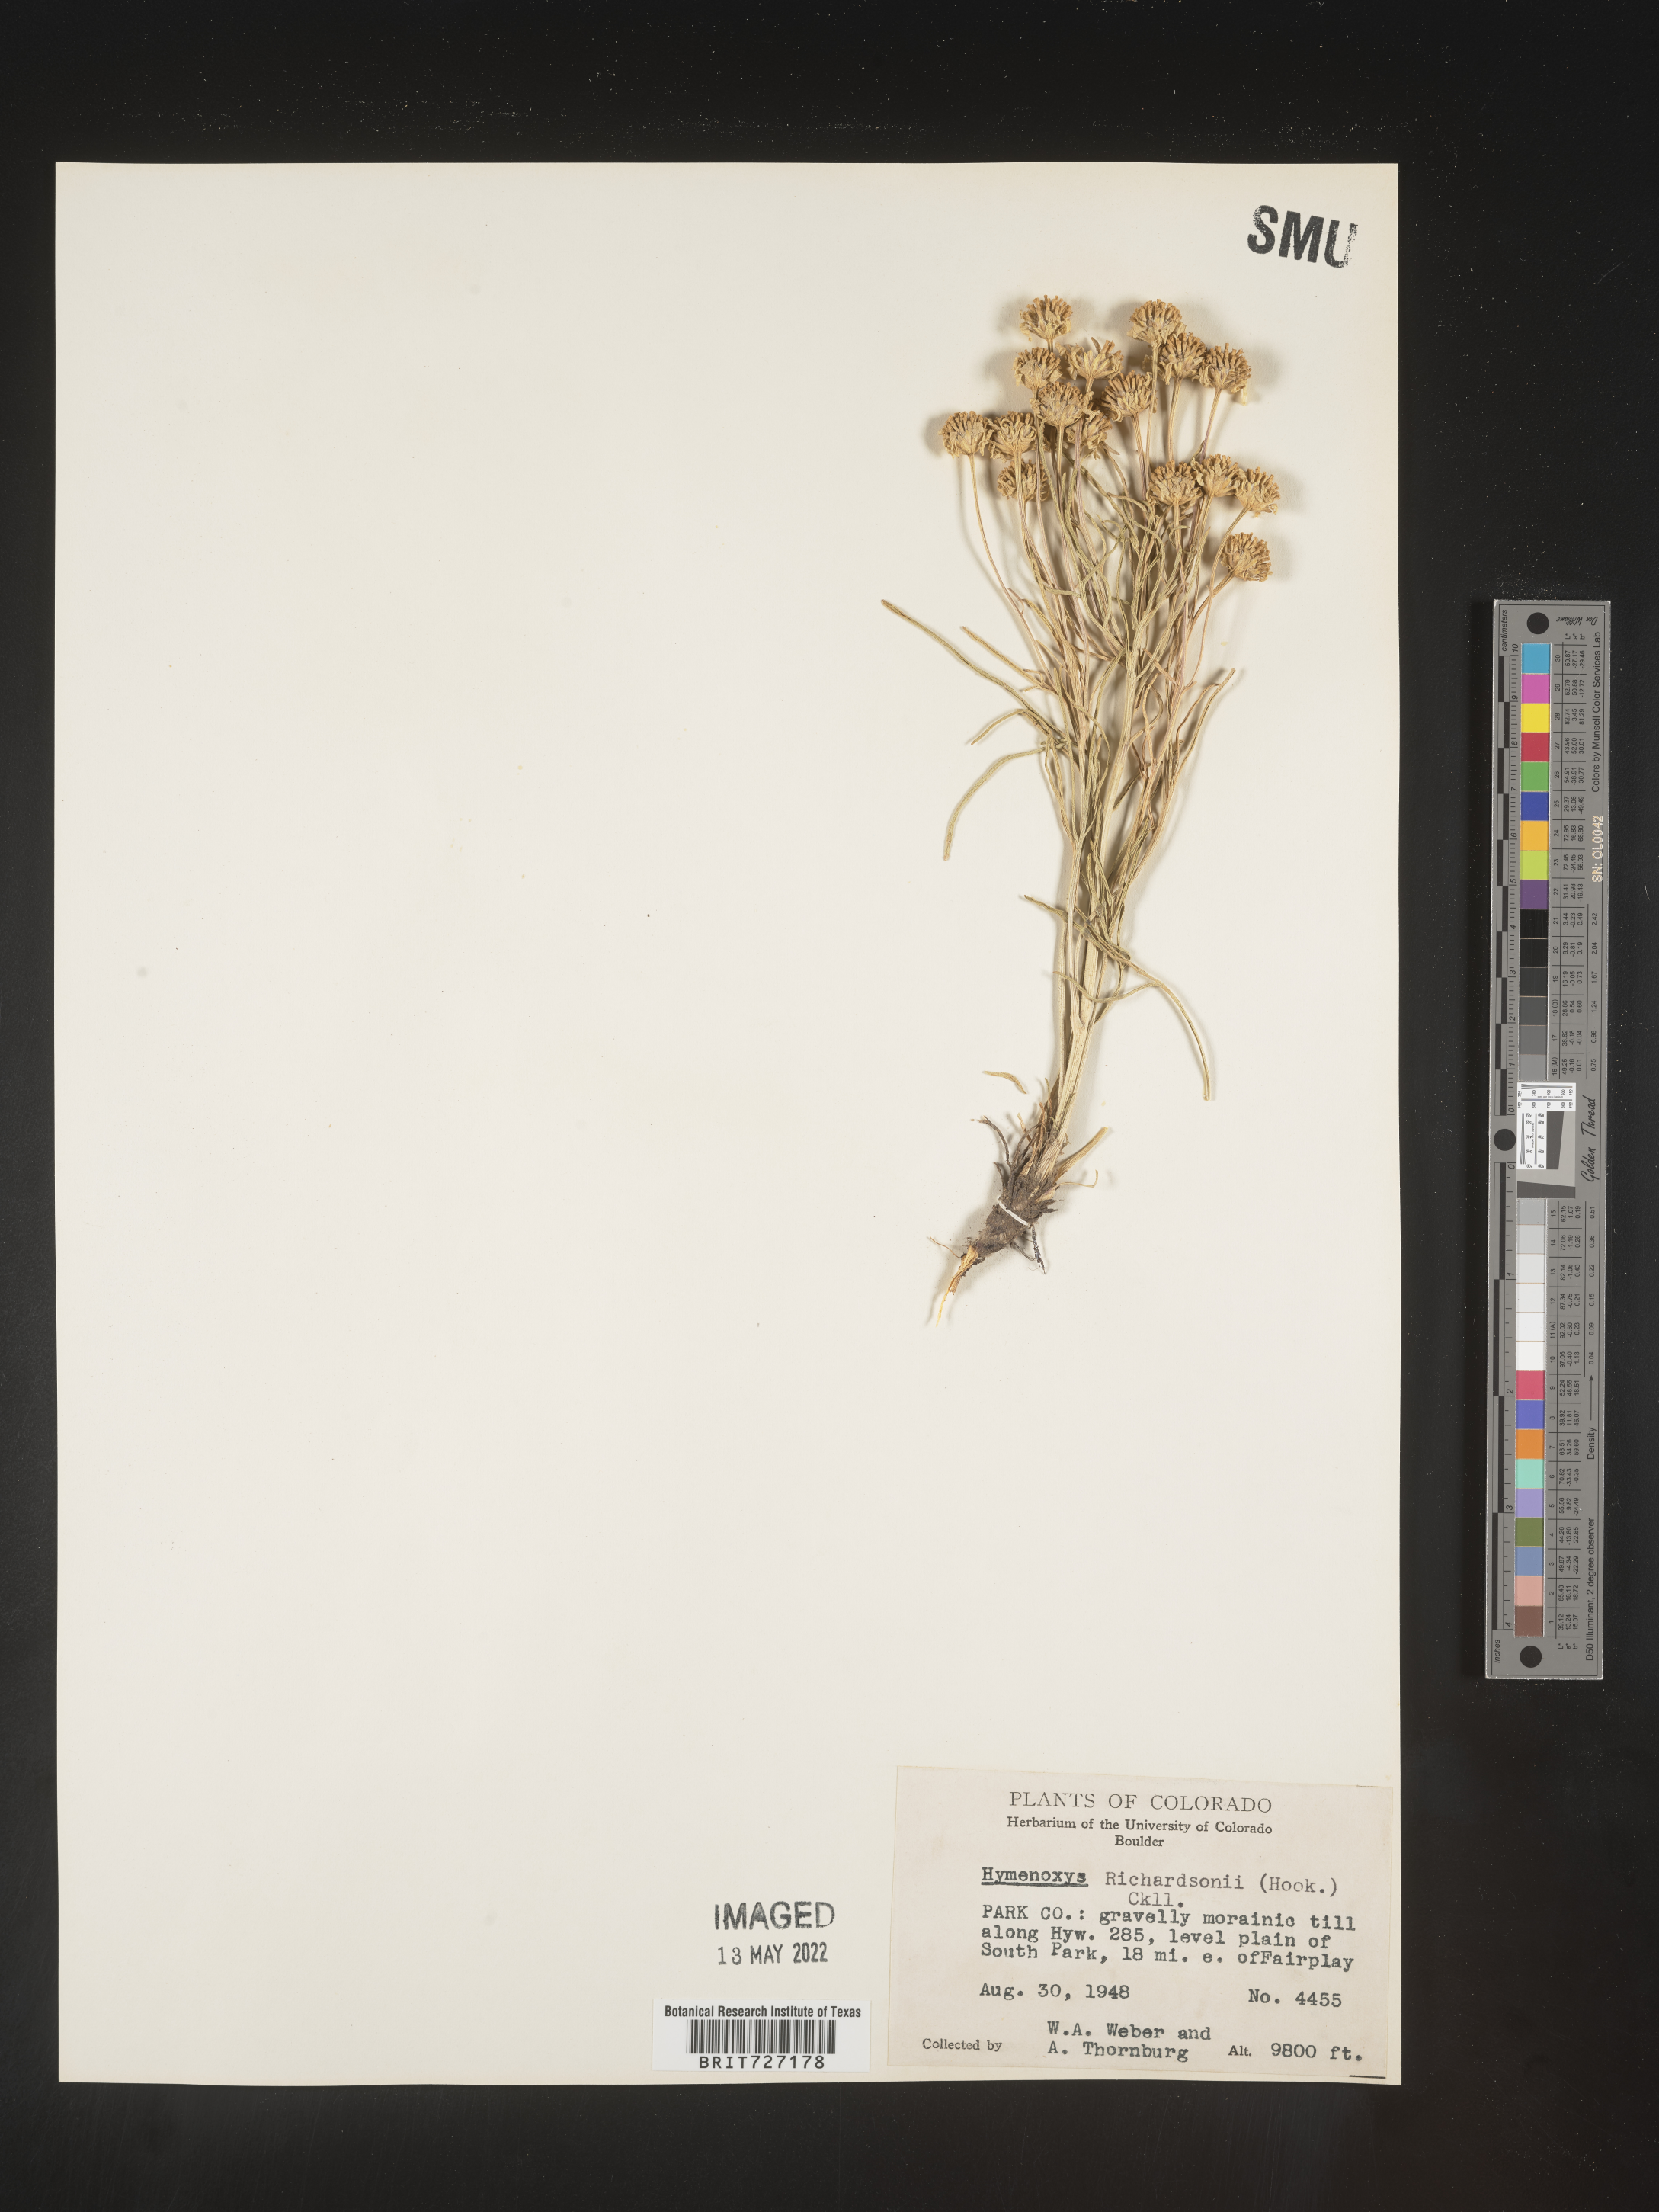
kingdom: Plantae
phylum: Tracheophyta
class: Magnoliopsida
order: Asterales
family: Asteraceae
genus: Hymenoxys
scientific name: Hymenoxys richardsonii
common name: Pingue rubberweed
